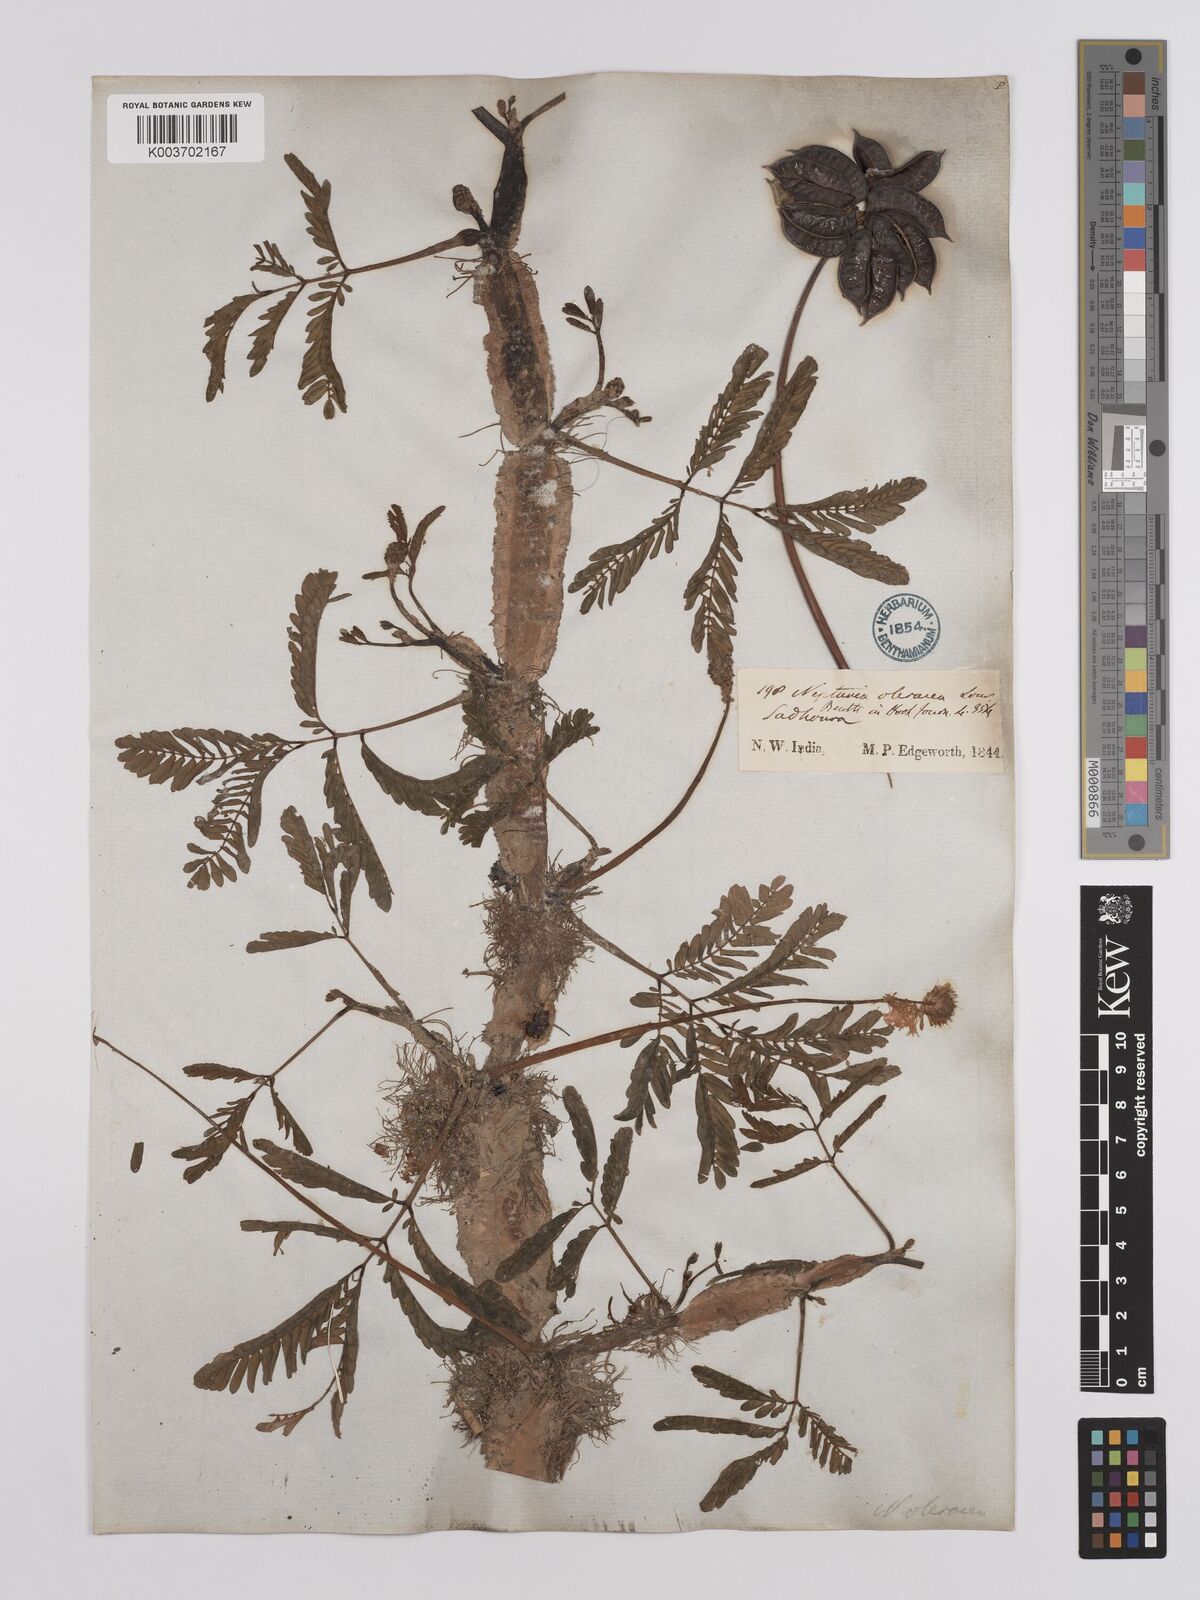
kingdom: Plantae
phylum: Tracheophyta
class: Magnoliopsida
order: Fabales
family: Fabaceae
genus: Neptunia
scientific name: Neptunia prostrata
